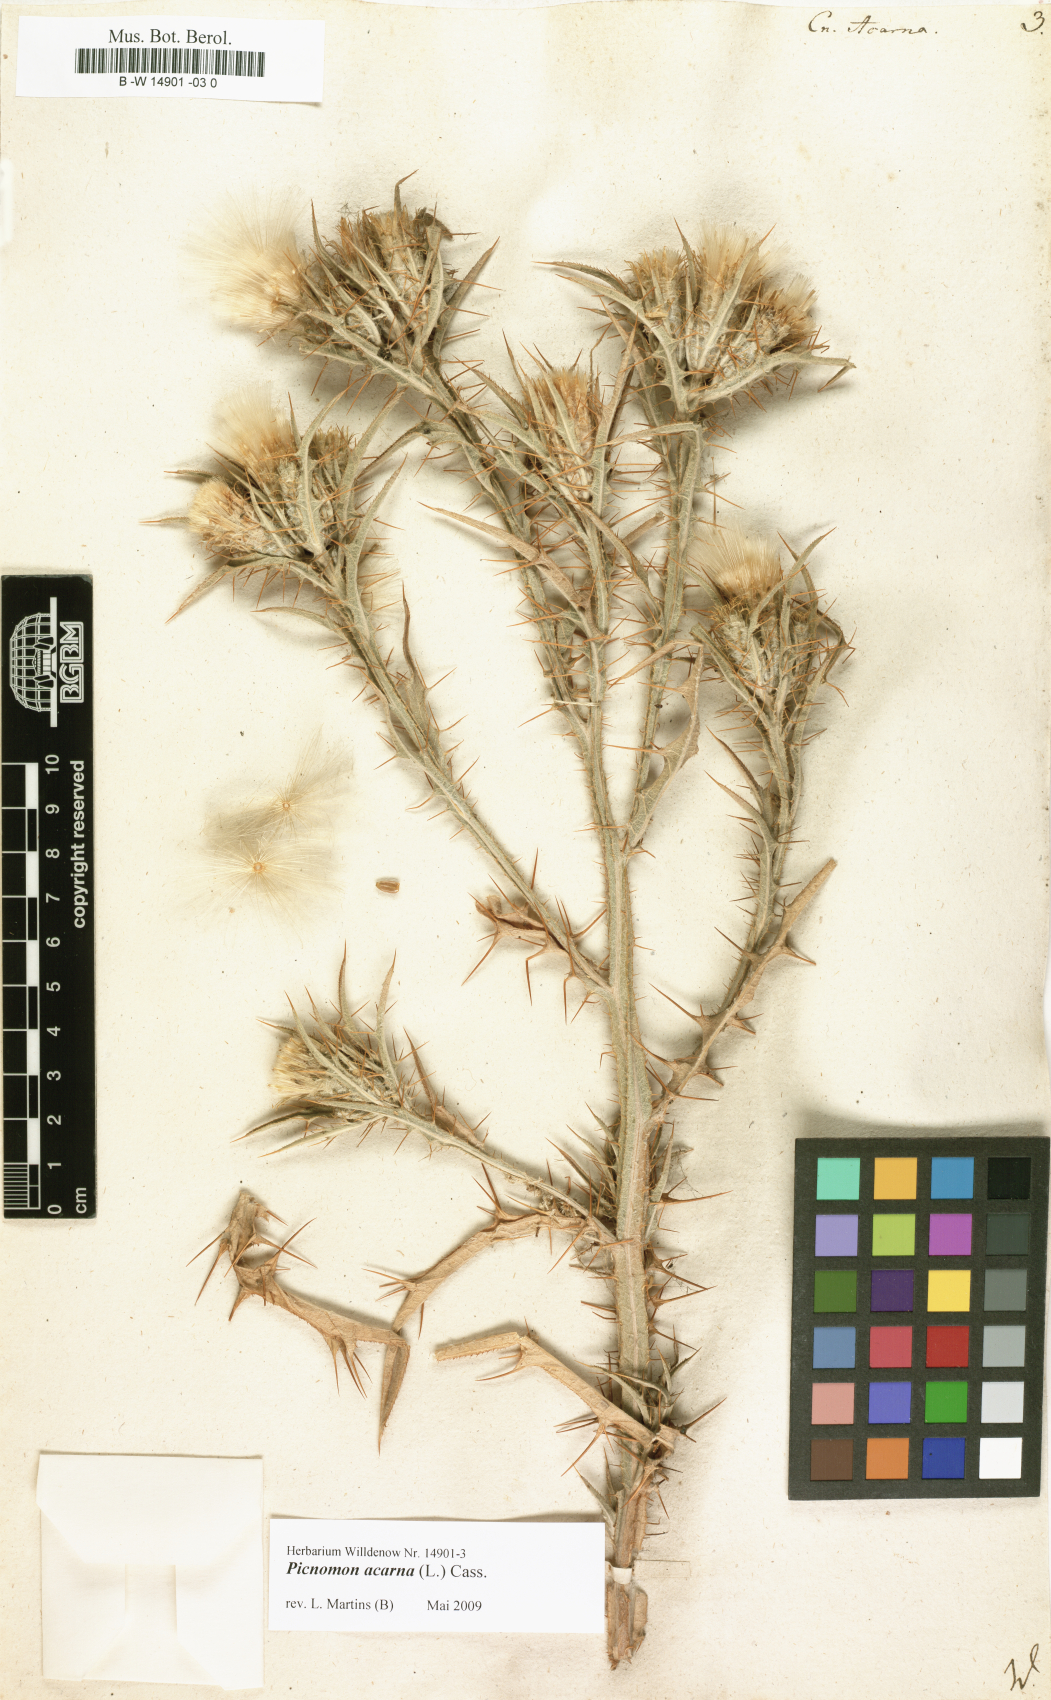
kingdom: Plantae
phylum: Tracheophyta
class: Magnoliopsida
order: Asterales
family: Asteraceae
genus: Picnomon
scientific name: Picnomon acarna
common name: Soldier thistle
